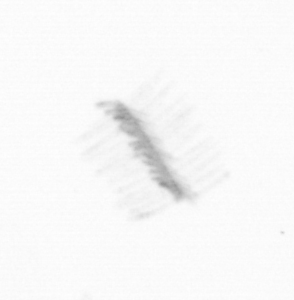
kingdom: Chromista
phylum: Ochrophyta
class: Bacillariophyceae
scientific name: Bacillariophyceae
